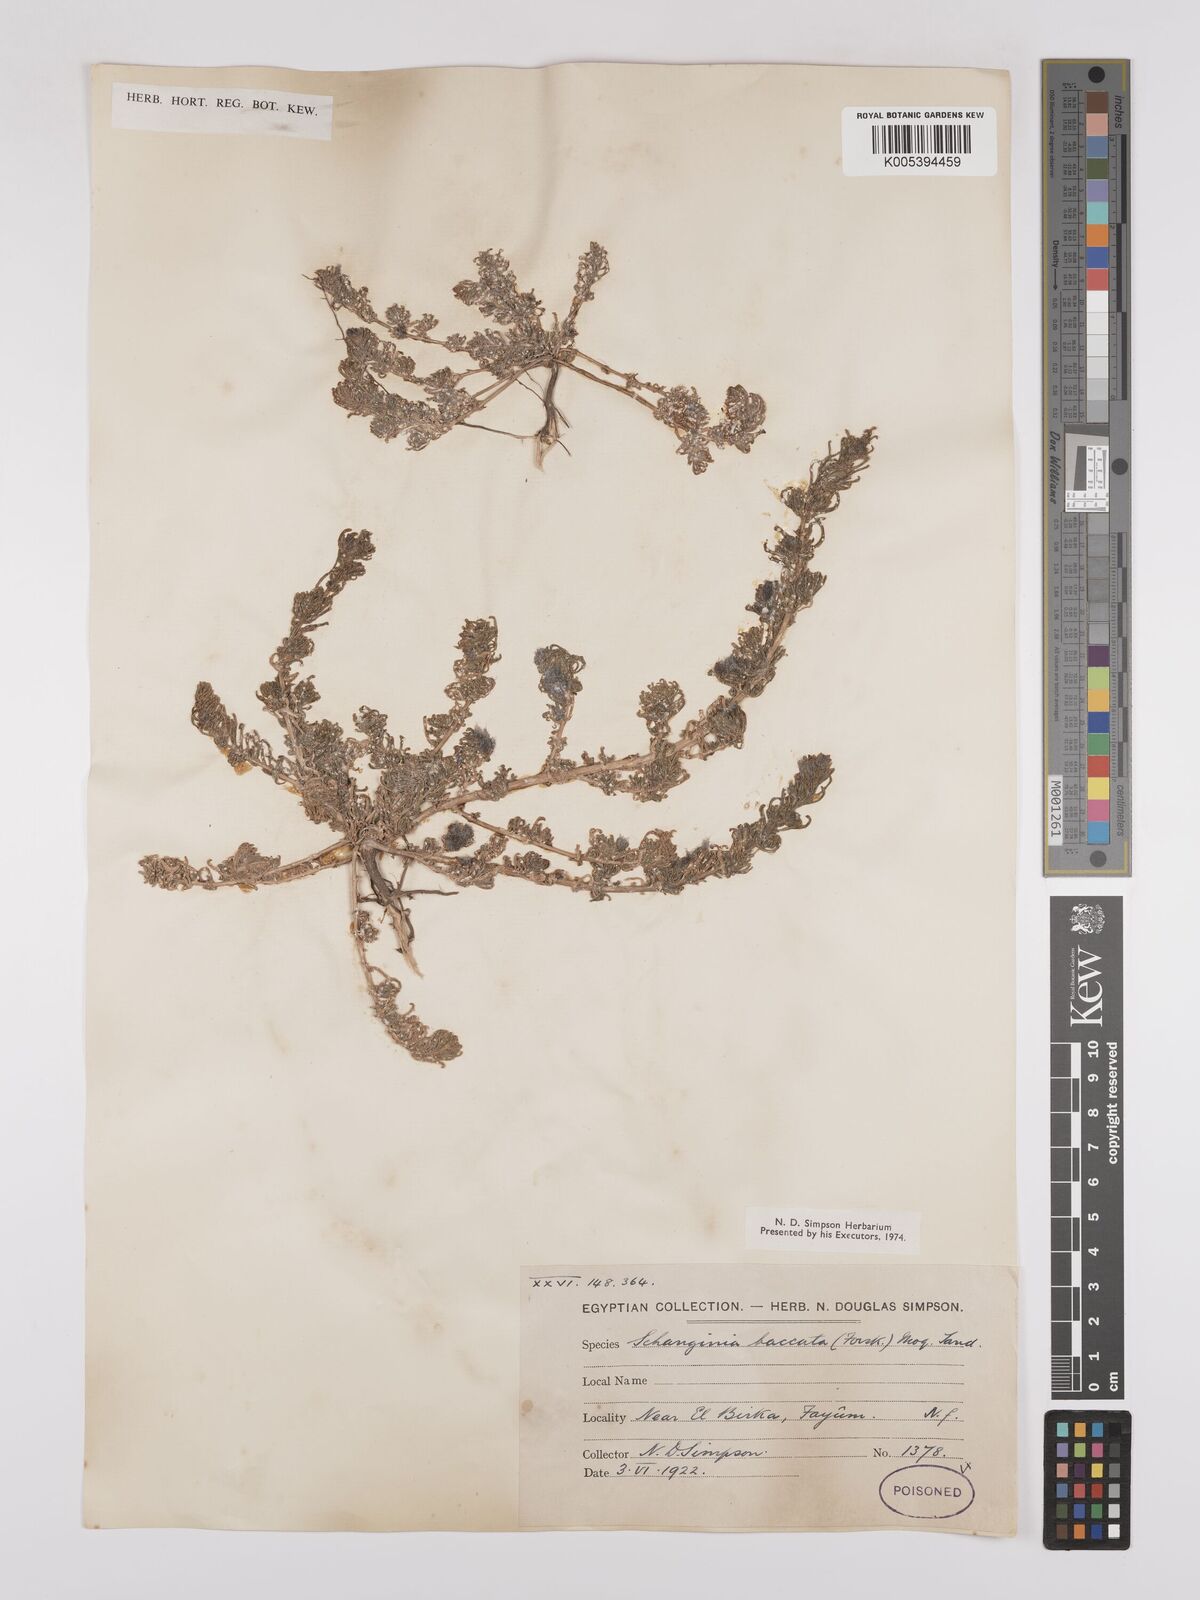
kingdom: Plantae
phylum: Tracheophyta
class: Magnoliopsida
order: Caryophyllales
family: Amaranthaceae
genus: Suaeda
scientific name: Suaeda aegyptiaca
